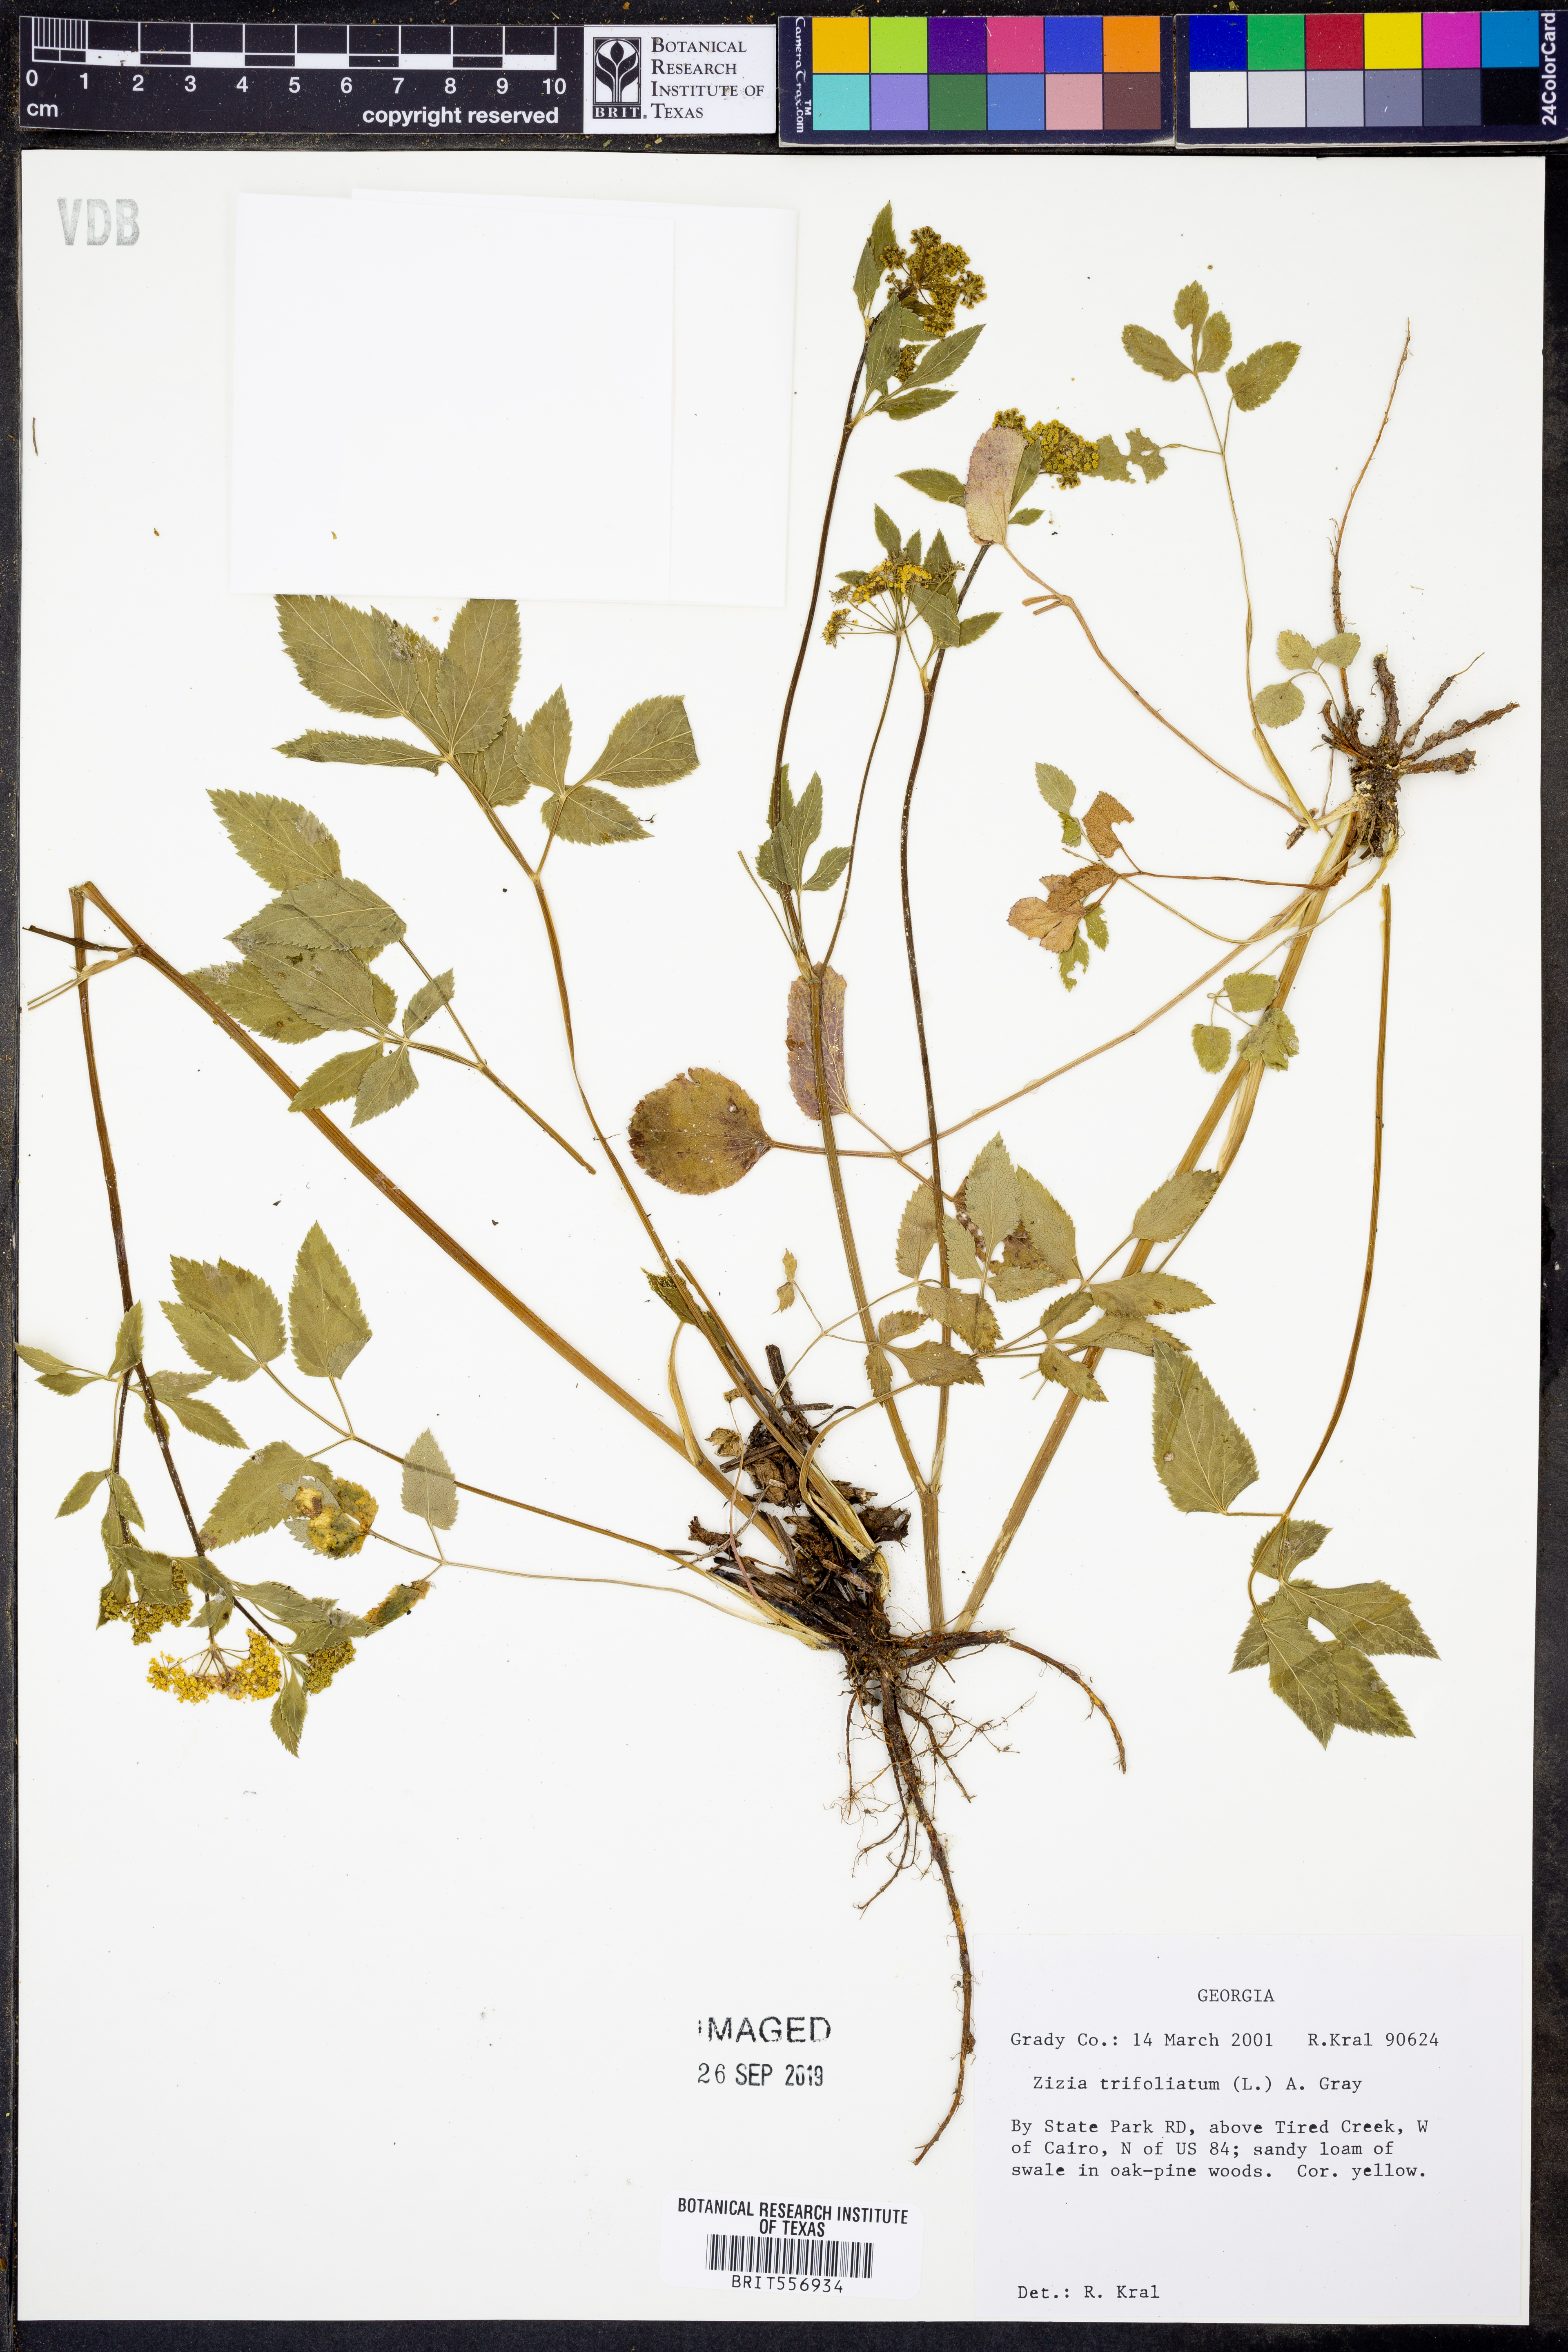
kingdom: Plantae
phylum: Tracheophyta
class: Magnoliopsida
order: Apiales
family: Apiaceae
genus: Zizia
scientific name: Zizia trifoliata
